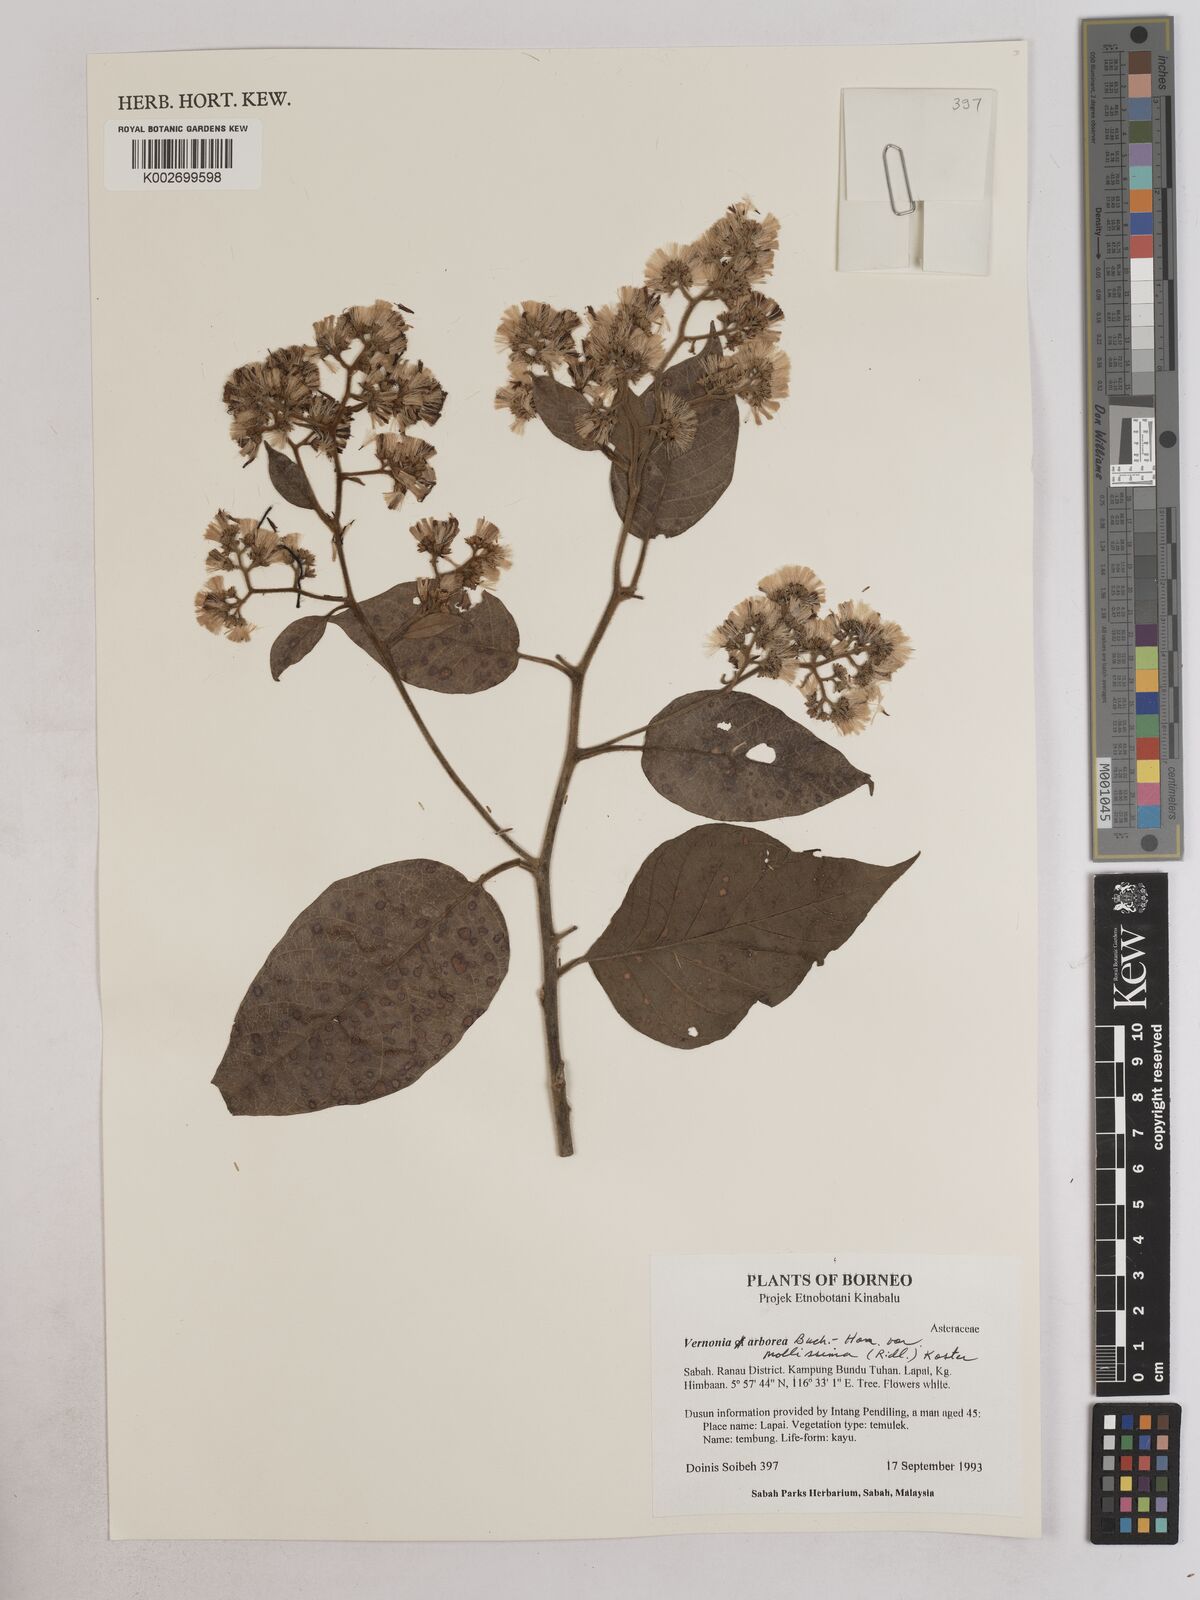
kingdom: Plantae
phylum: Tracheophyta
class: Magnoliopsida
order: Asterales
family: Asteraceae
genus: Strobocalyx
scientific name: Strobocalyx arborea
